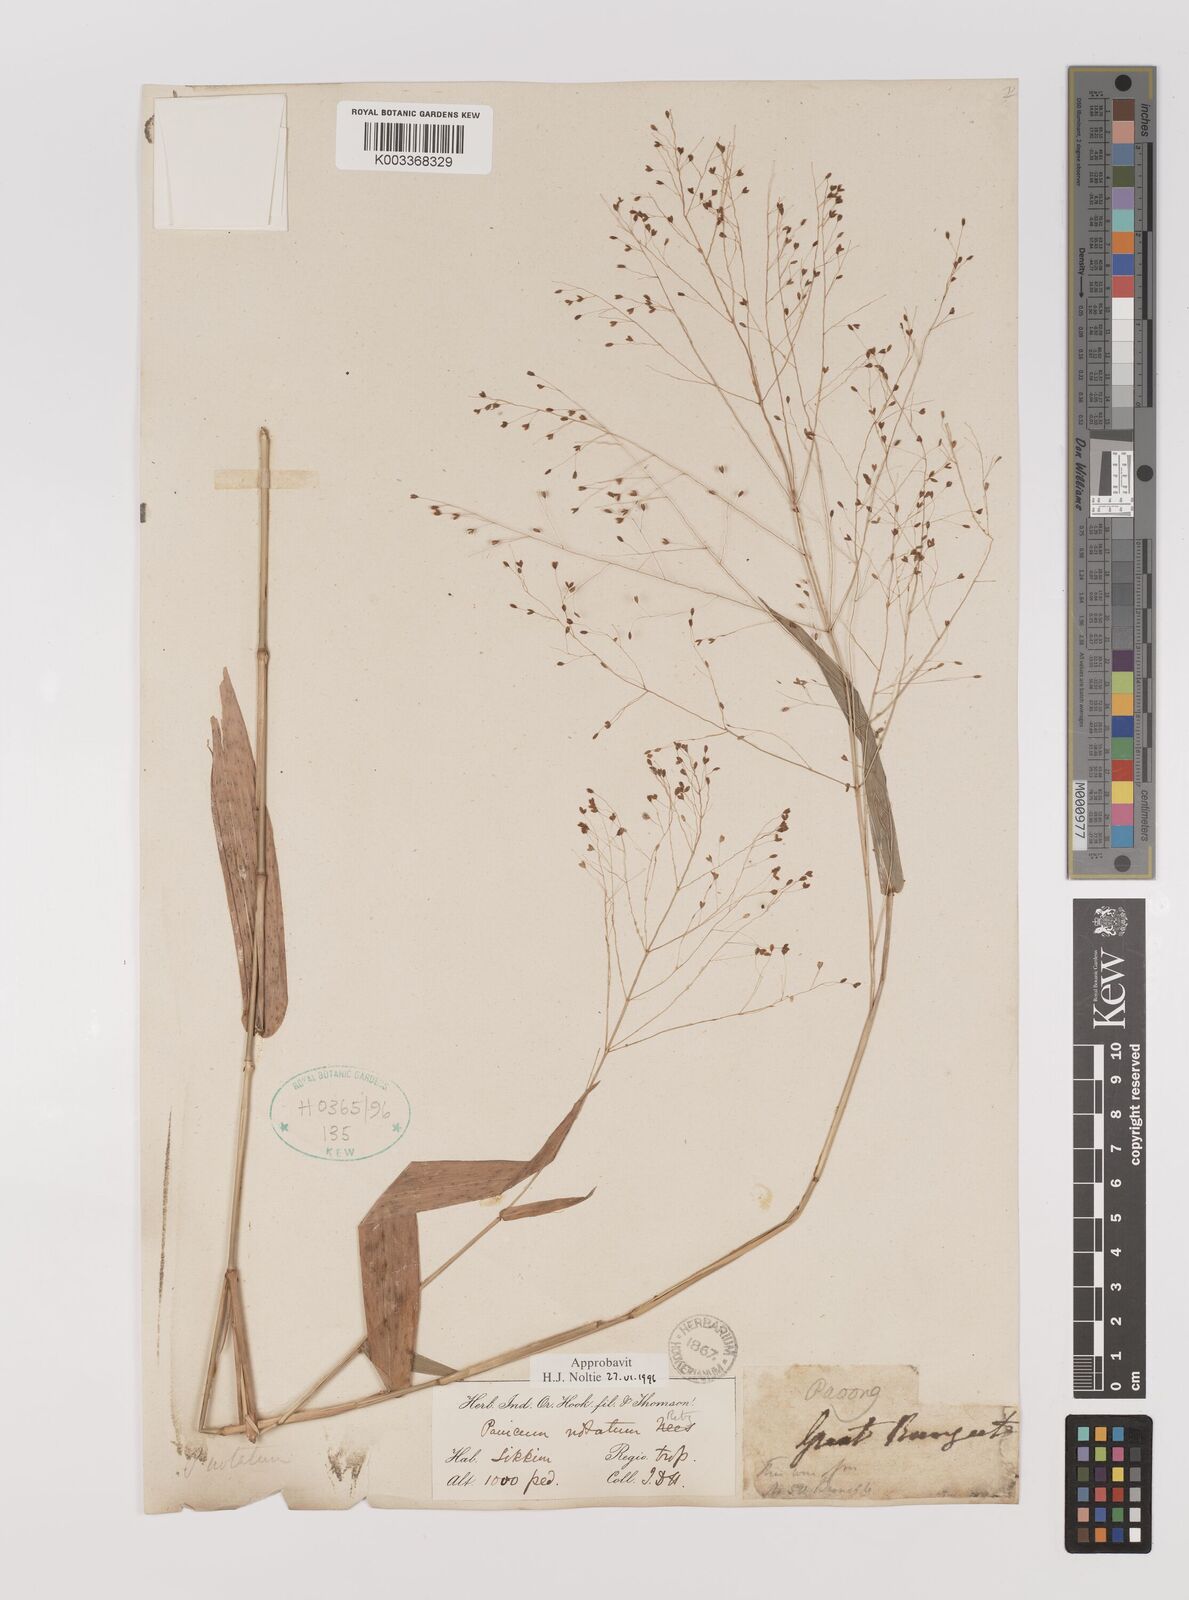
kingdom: Plantae
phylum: Tracheophyta
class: Liliopsida
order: Poales
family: Poaceae
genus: Panicum
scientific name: Panicum notatum
